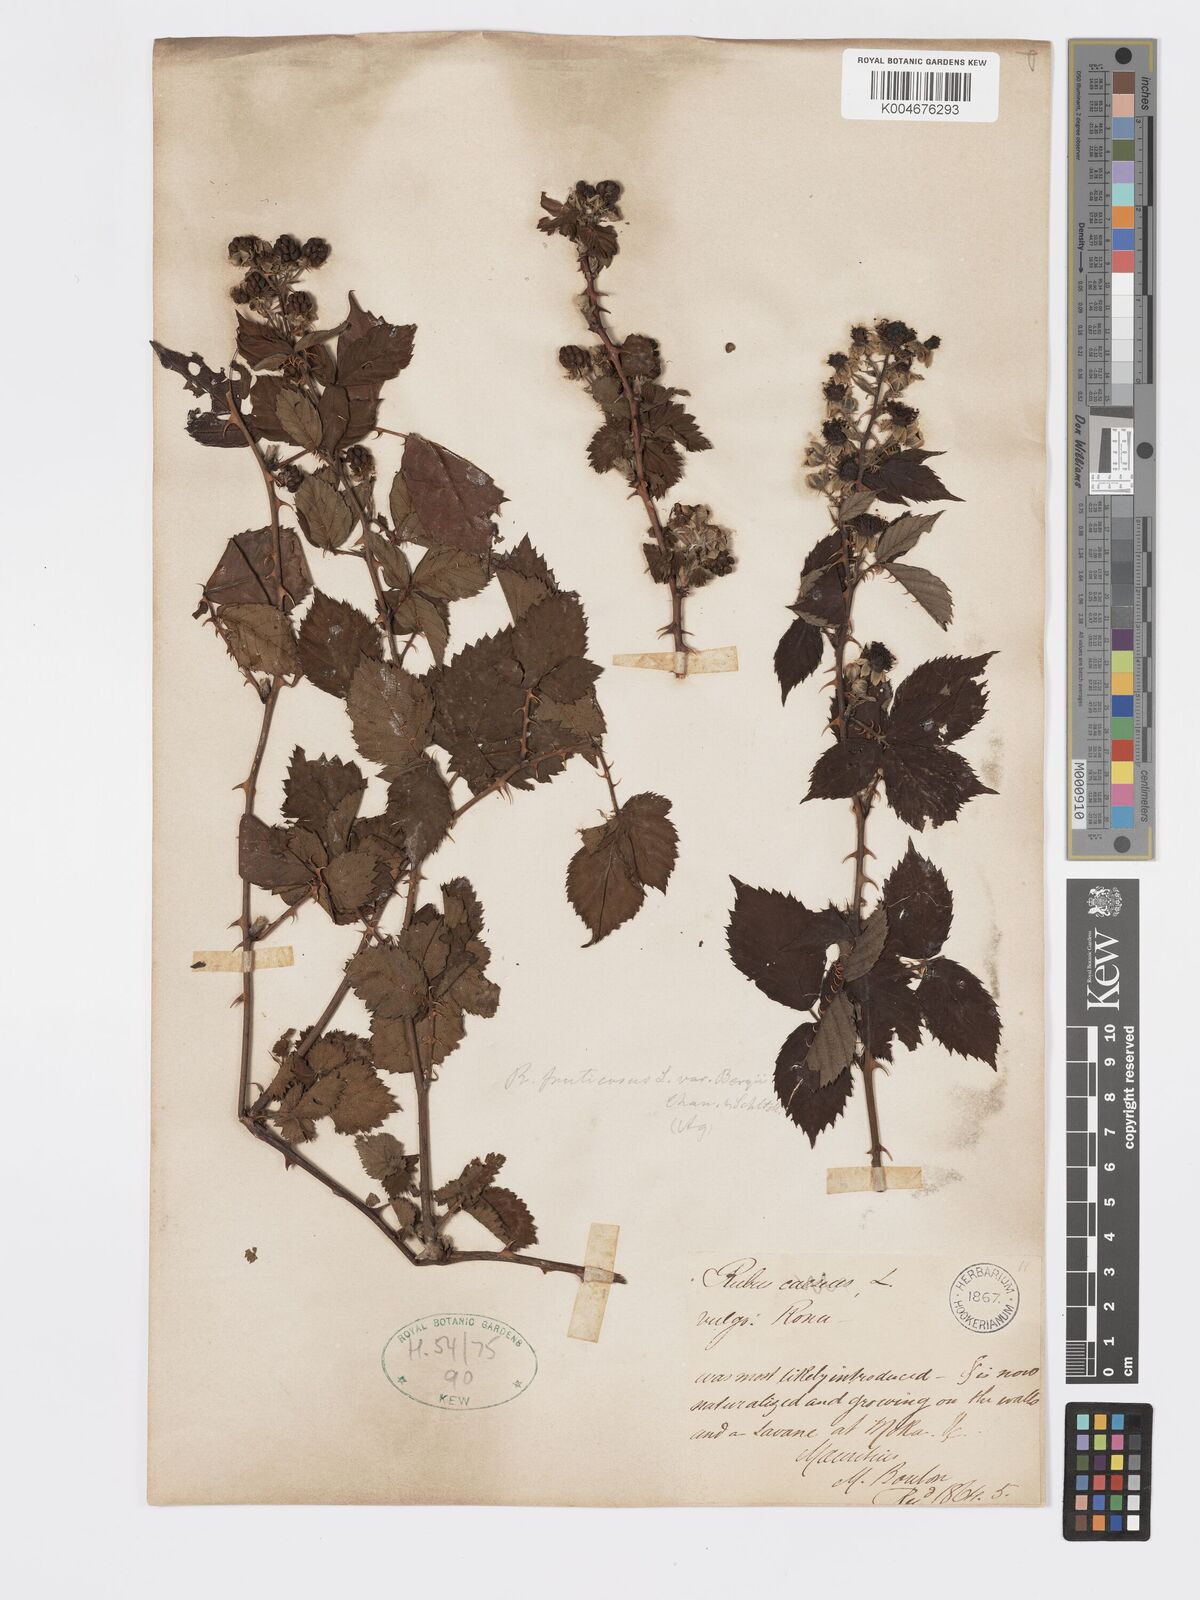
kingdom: Plantae
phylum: Tracheophyta
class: Magnoliopsida
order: Rosales
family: Rosaceae
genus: Rubus
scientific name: Rubus fruticosus
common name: Blackberry, bramble
